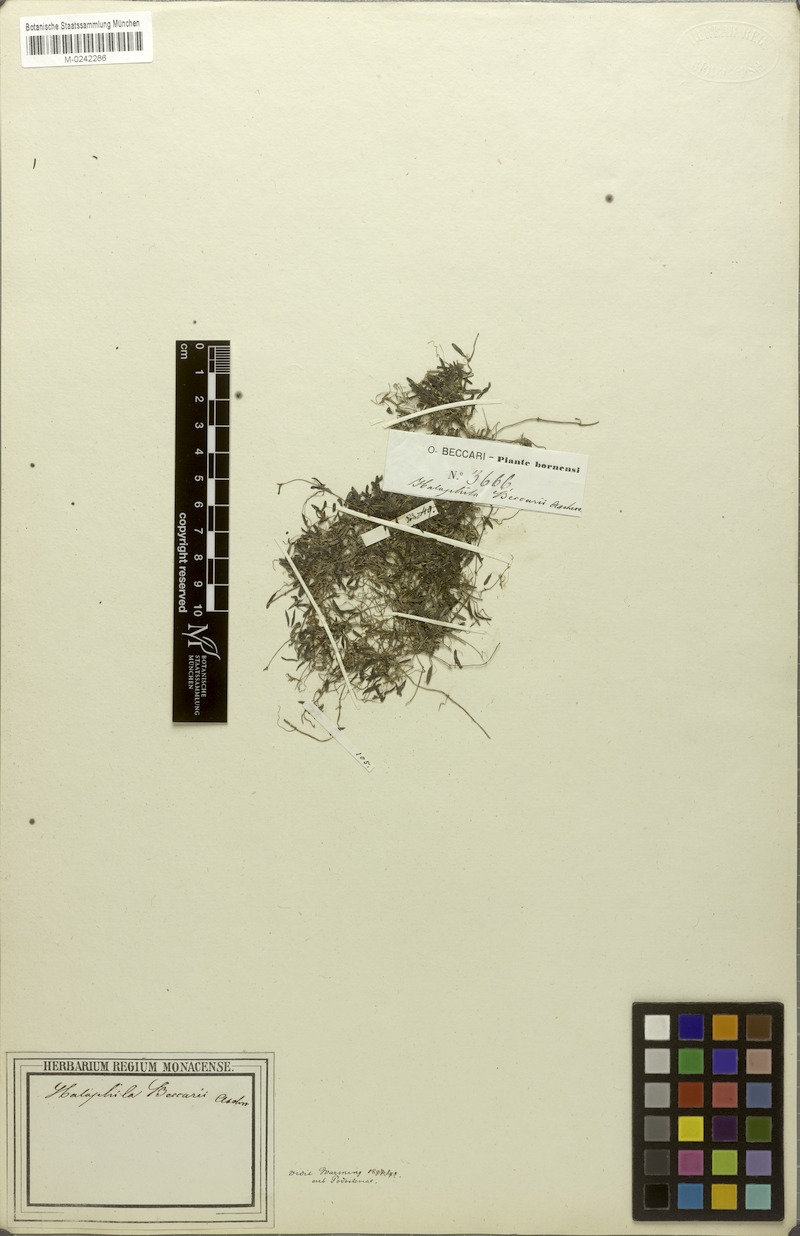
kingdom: Plantae
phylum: Tracheophyta
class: Liliopsida
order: Alismatales
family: Hydrocharitaceae
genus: Halophila
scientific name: Halophila beccarii
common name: Ocean turf grass
